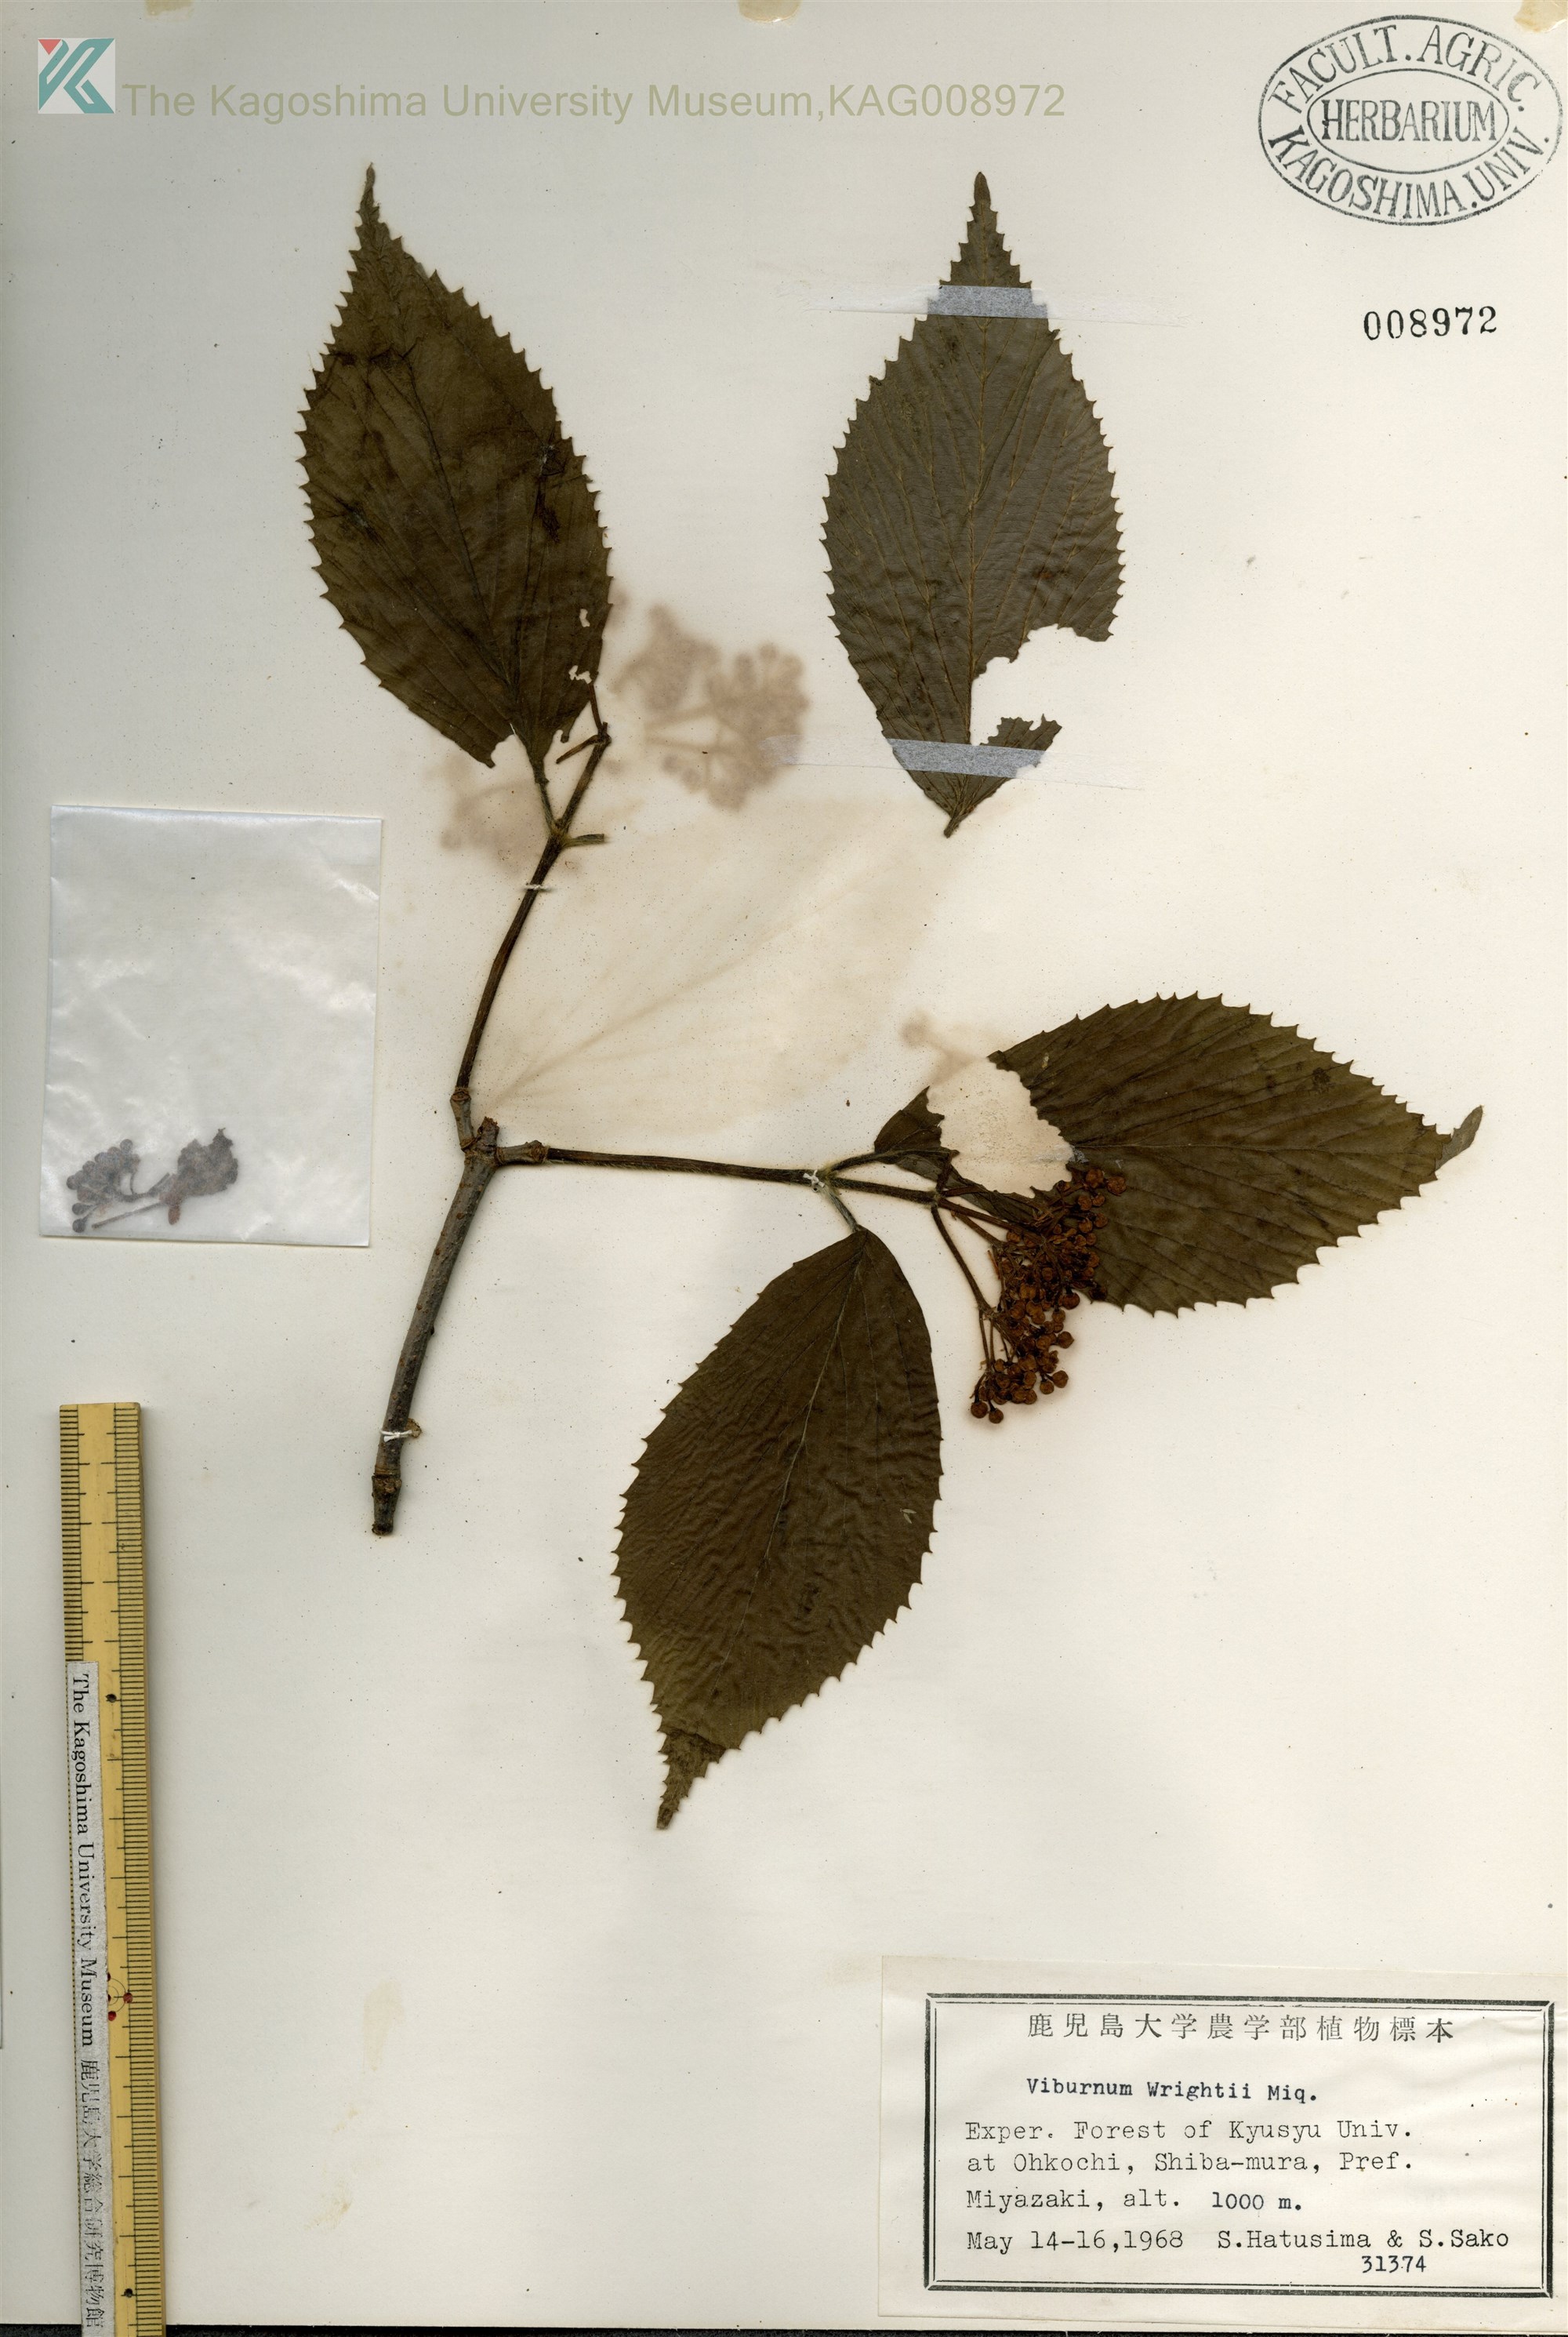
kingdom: Plantae
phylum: Tracheophyta
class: Magnoliopsida
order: Dipsacales
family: Viburnaceae
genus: Viburnum
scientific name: Viburnum wrightii
